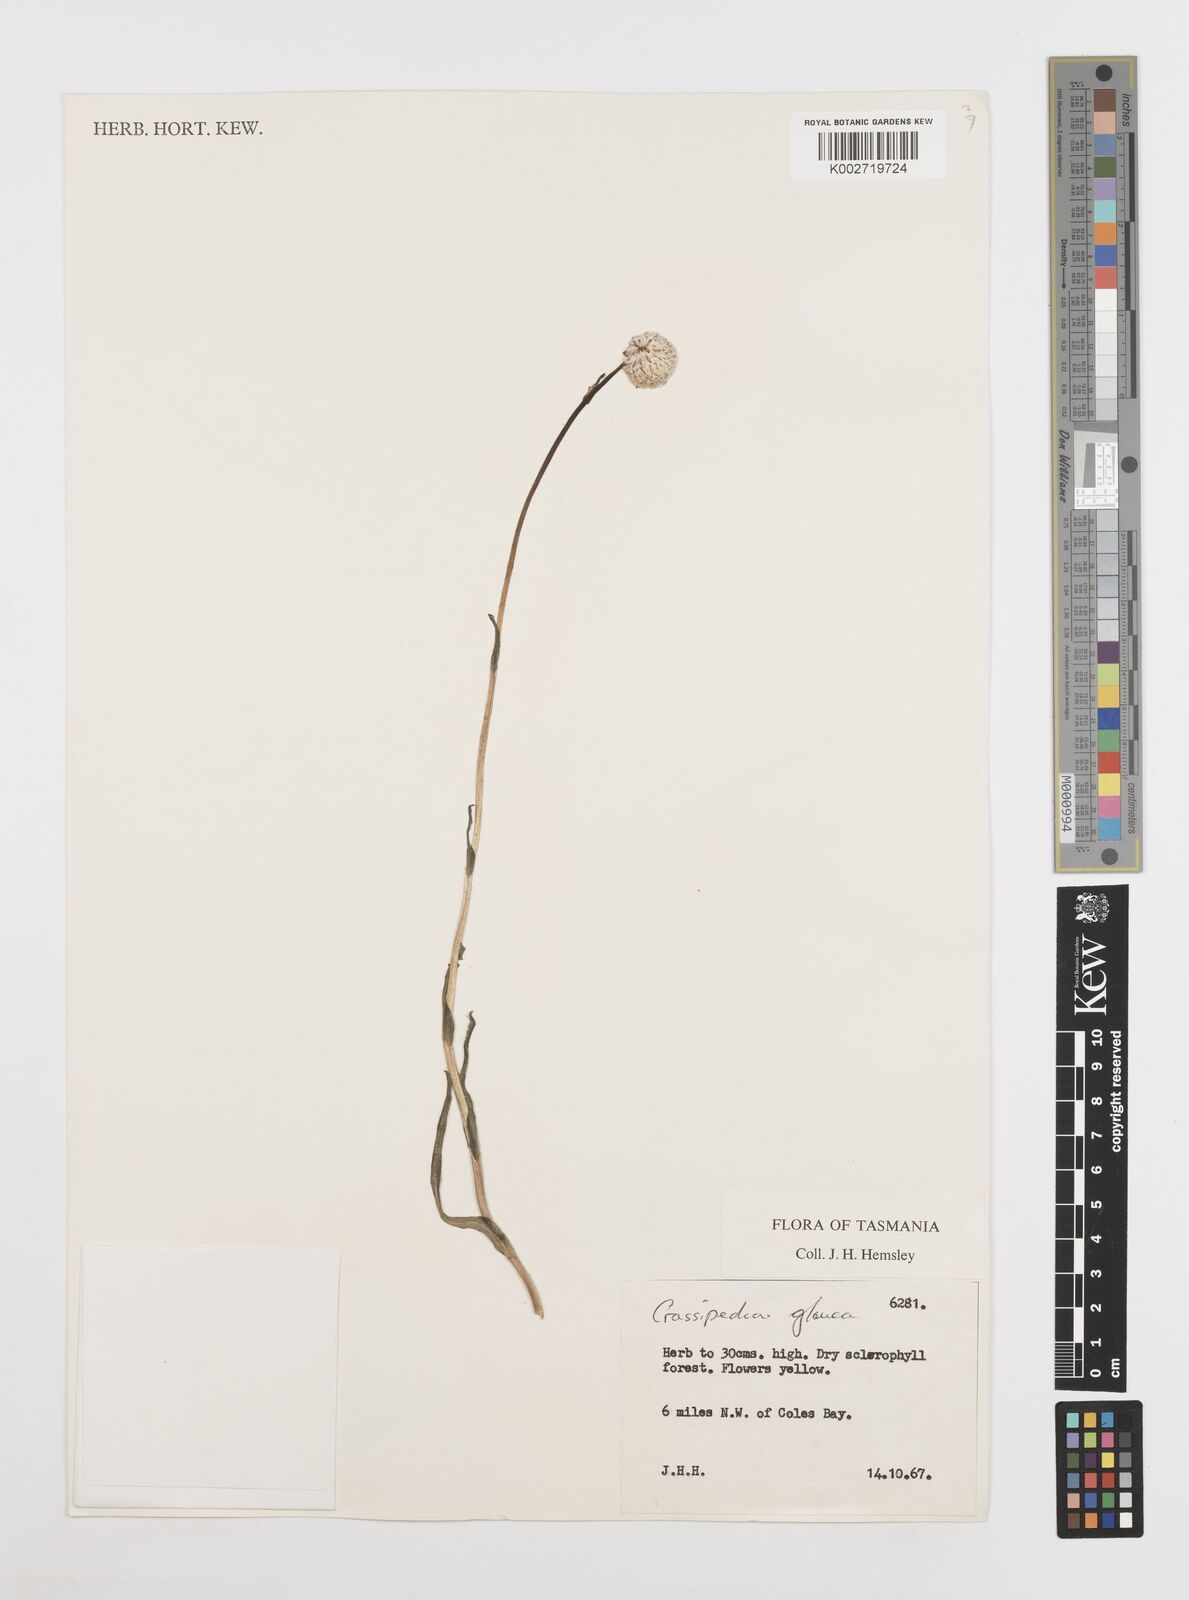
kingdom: Plantae
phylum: Tracheophyta
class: Magnoliopsida
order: Asterales
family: Asteraceae
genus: Craspedia
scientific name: Craspedia glauca
